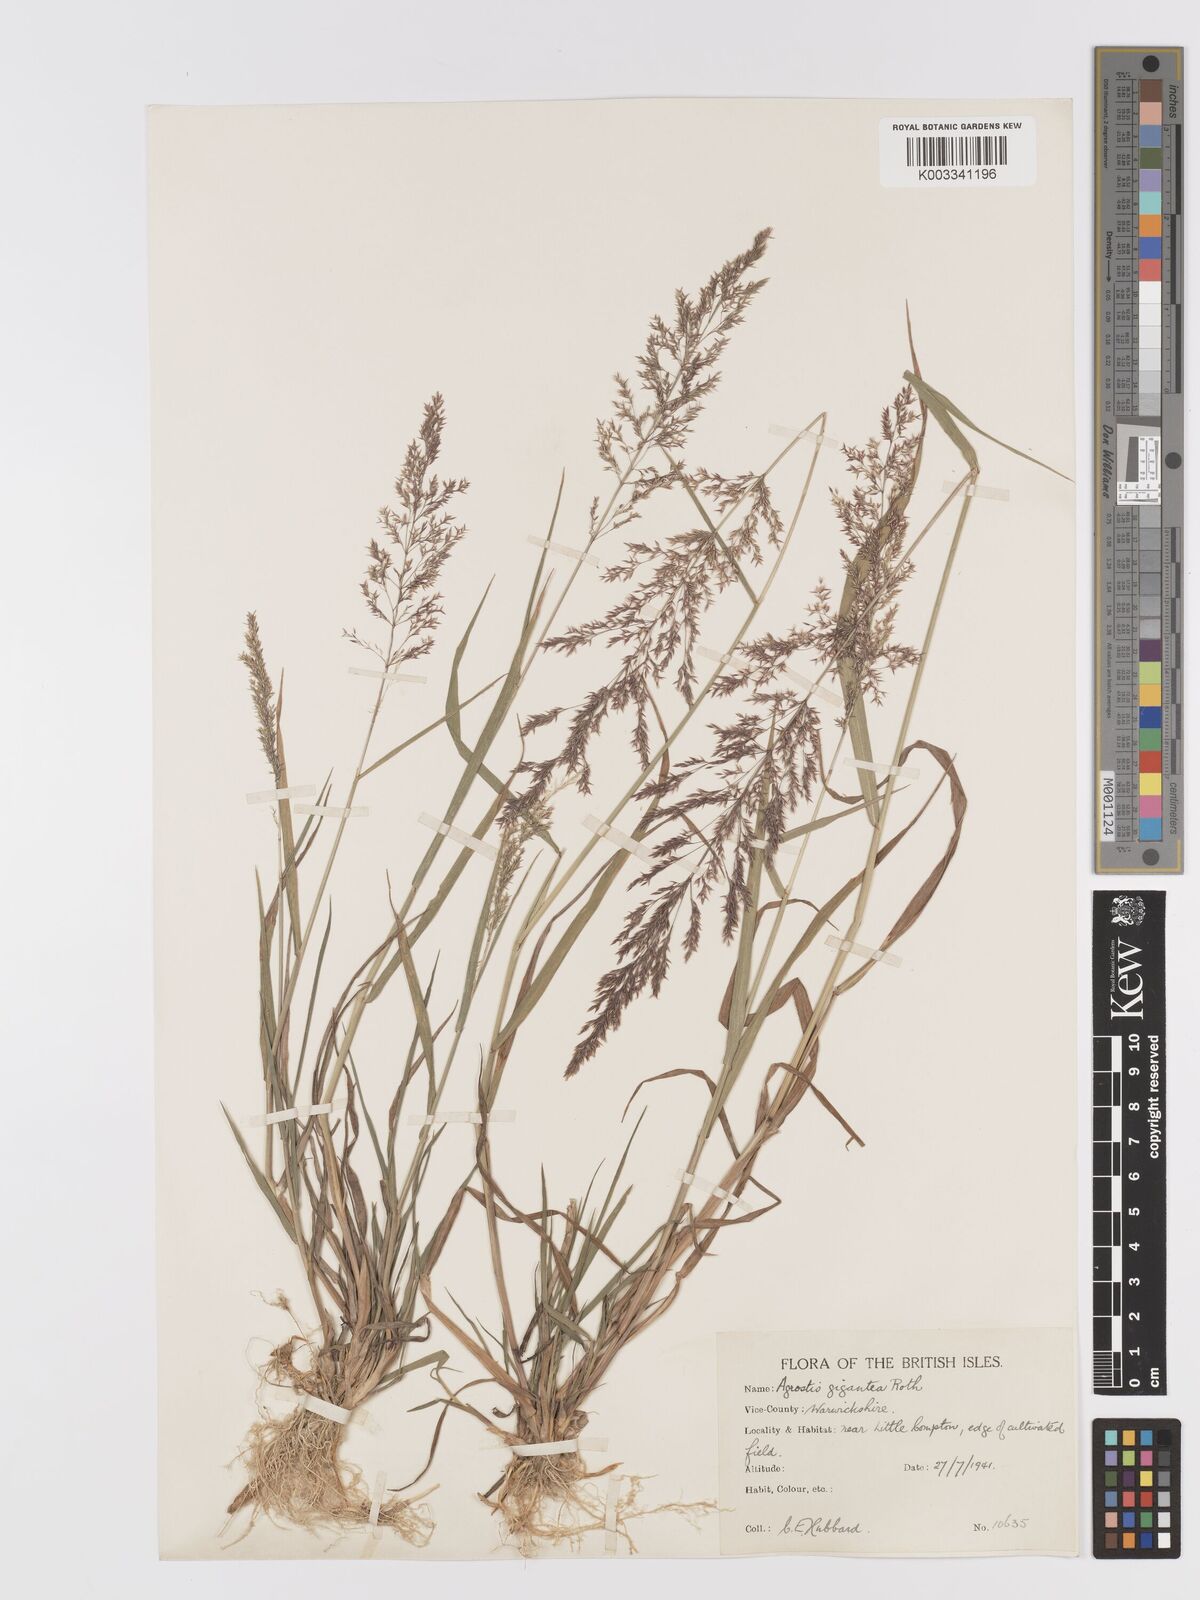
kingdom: Plantae
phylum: Tracheophyta
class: Liliopsida
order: Poales
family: Poaceae
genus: Agrostis
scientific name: Agrostis gigantea
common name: Black bent
